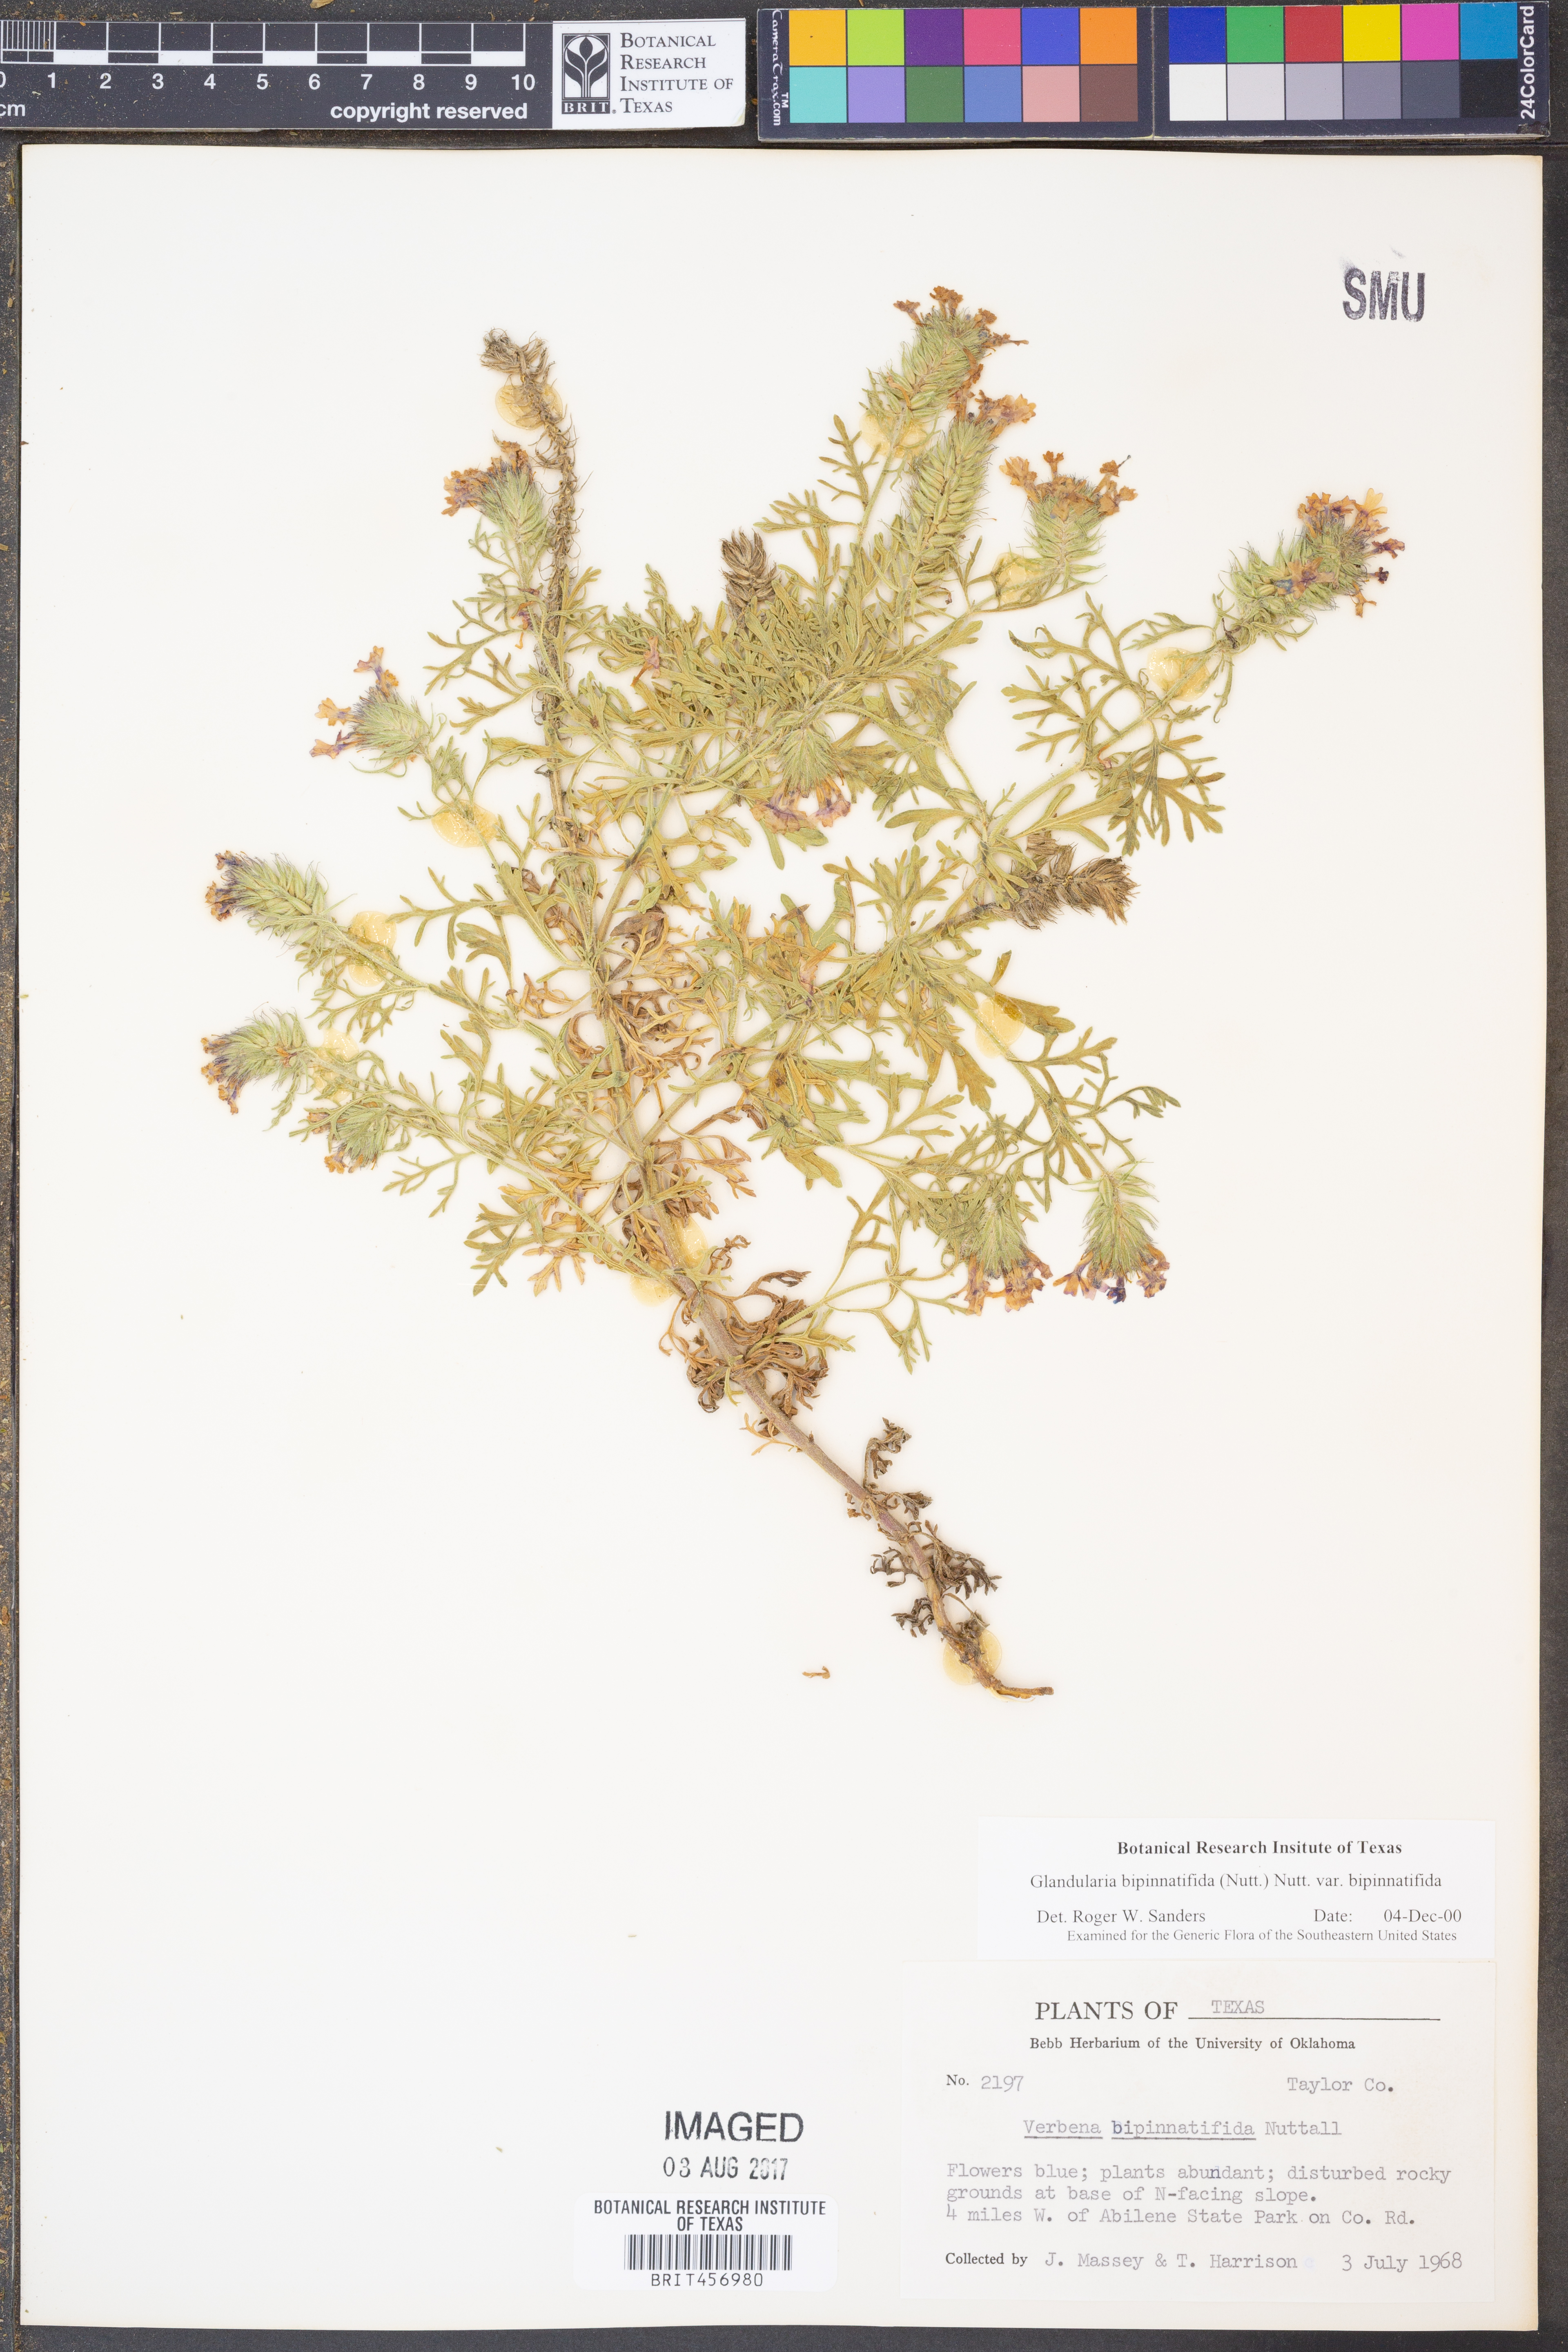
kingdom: Plantae
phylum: Tracheophyta
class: Magnoliopsida
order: Lamiales
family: Verbenaceae
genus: Verbena
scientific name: Verbena bipinnatifida
